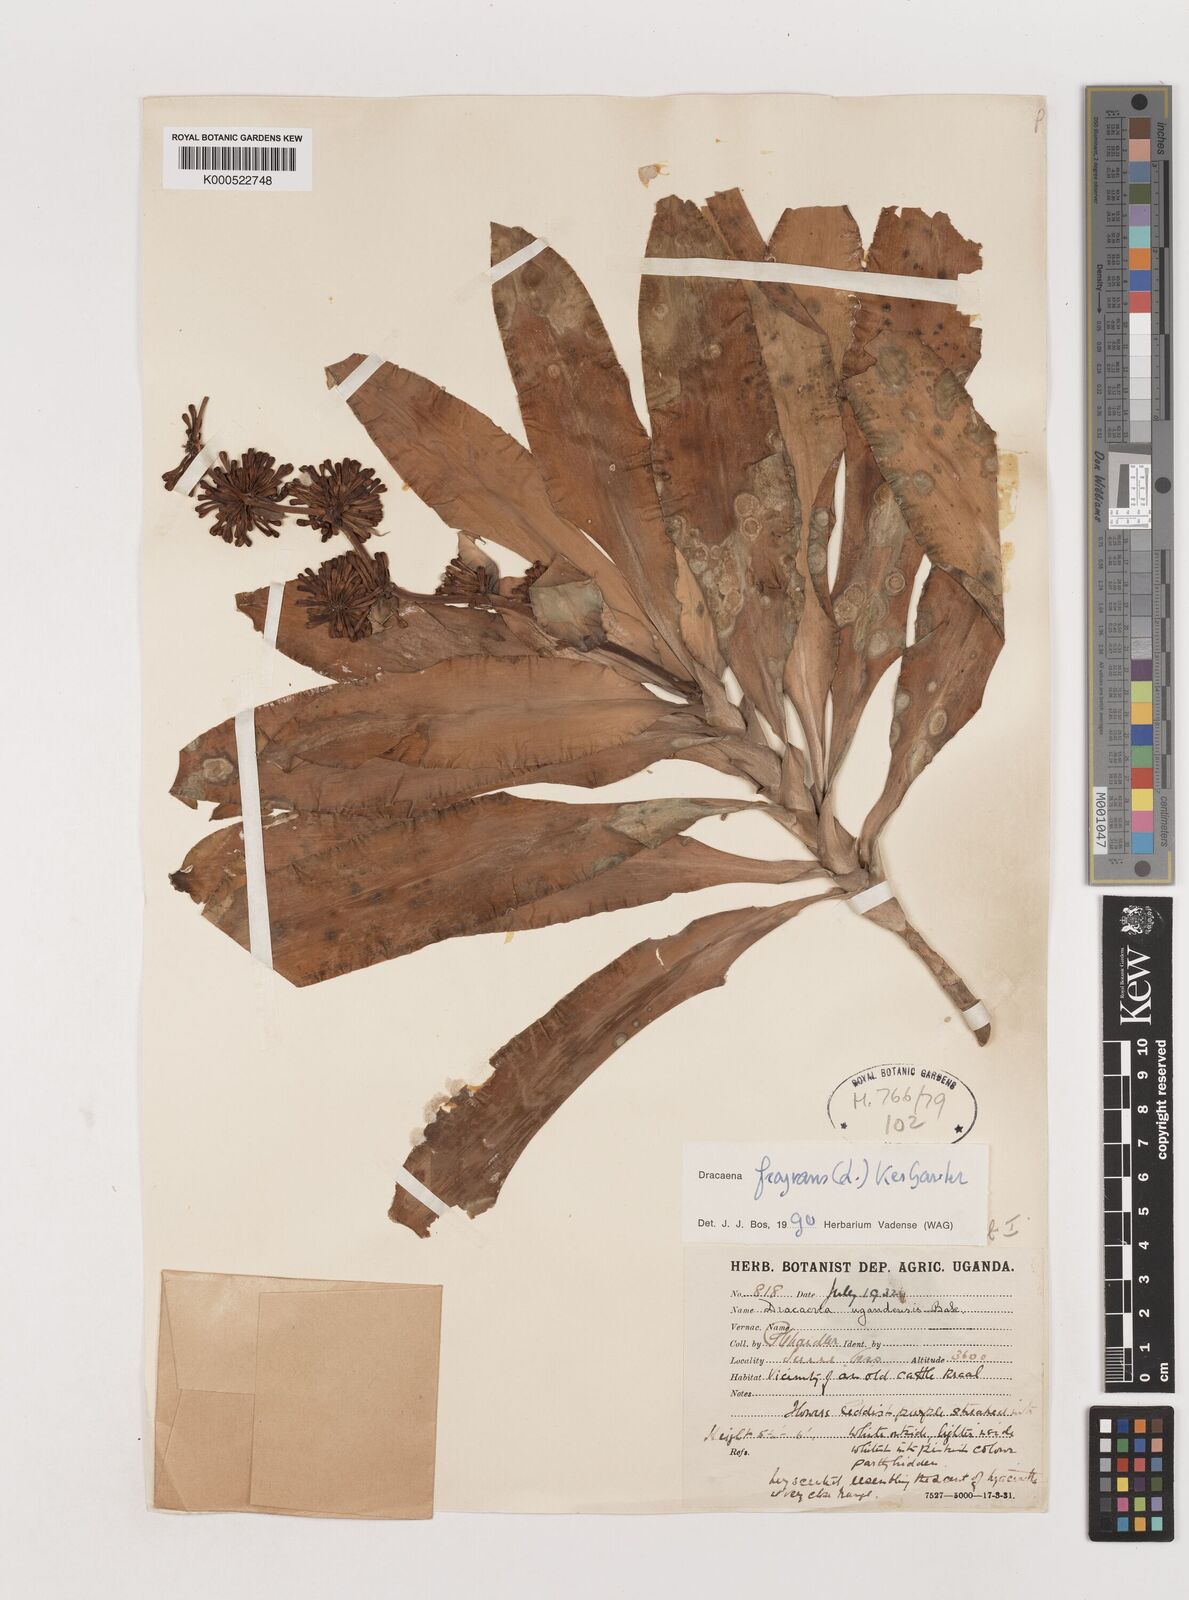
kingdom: Plantae
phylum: Tracheophyta
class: Liliopsida
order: Asparagales
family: Asparagaceae
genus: Dracaena
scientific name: Dracaena fragrans
